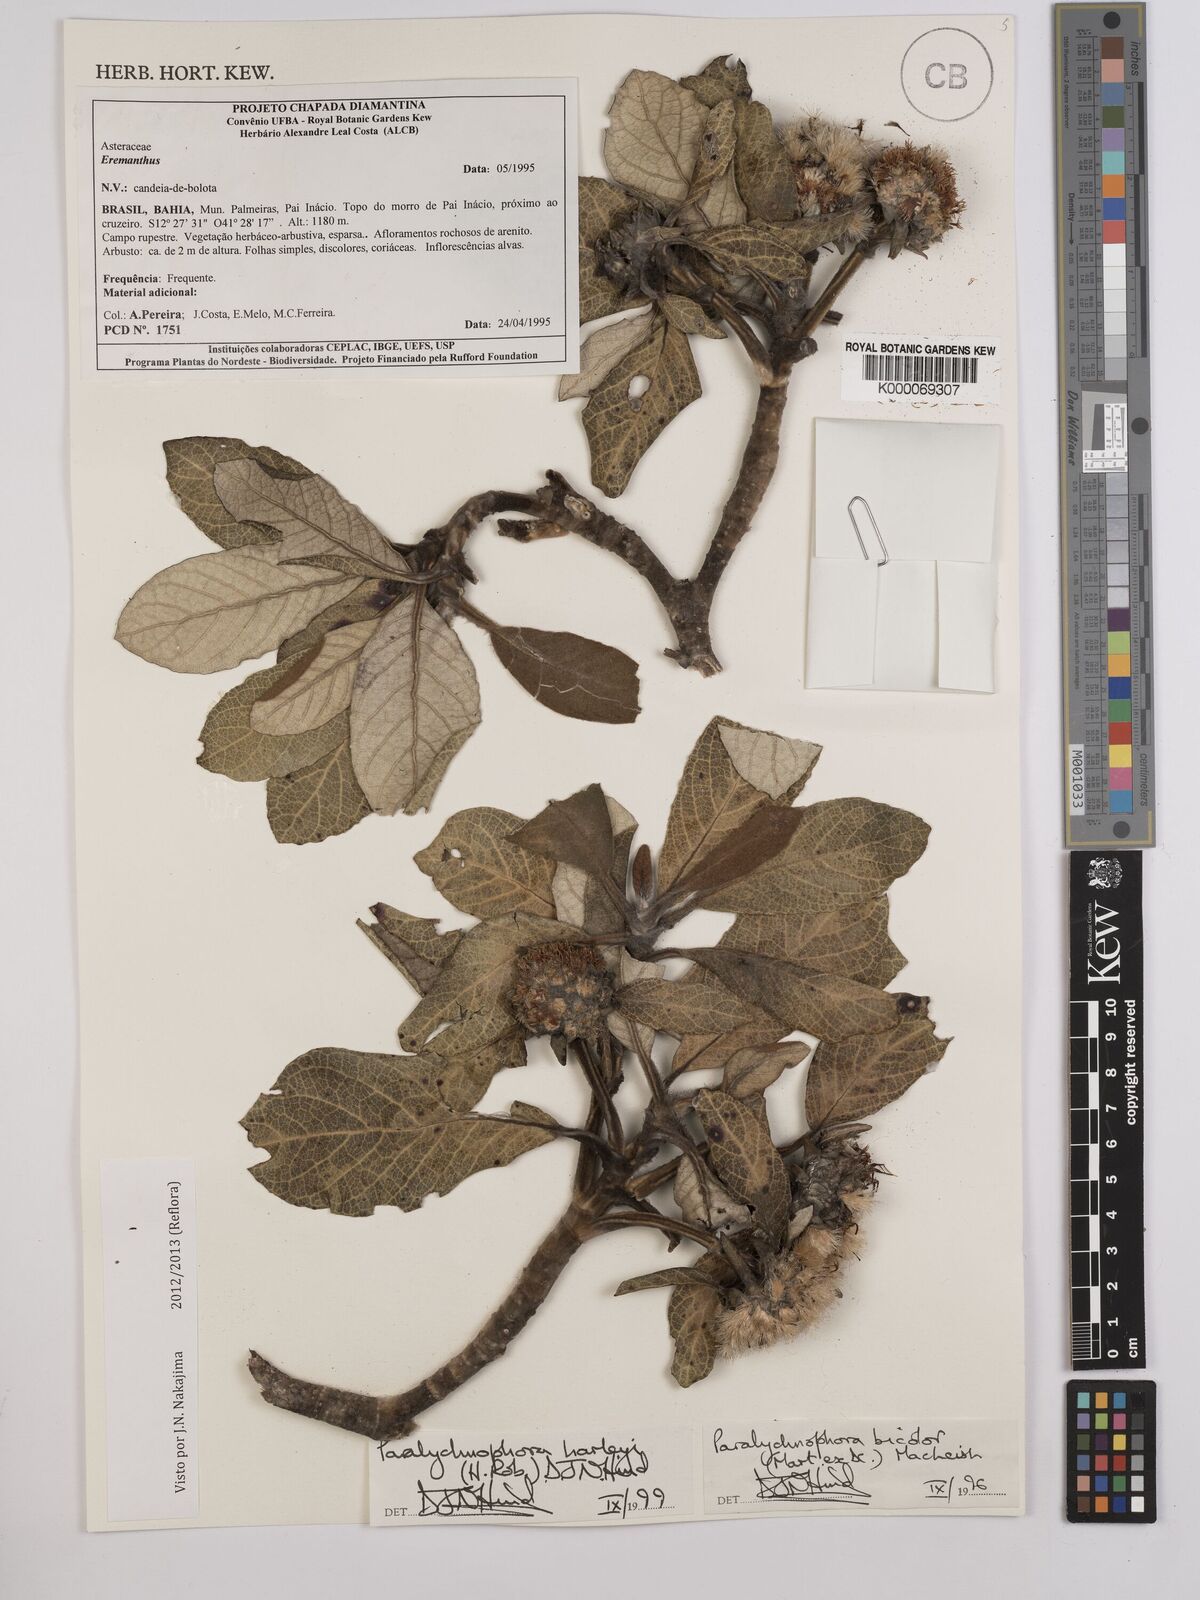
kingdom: Plantae
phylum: Tracheophyta
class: Magnoliopsida
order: Asterales
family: Asteraceae
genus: Paralychnophora
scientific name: Paralychnophora harleyi
